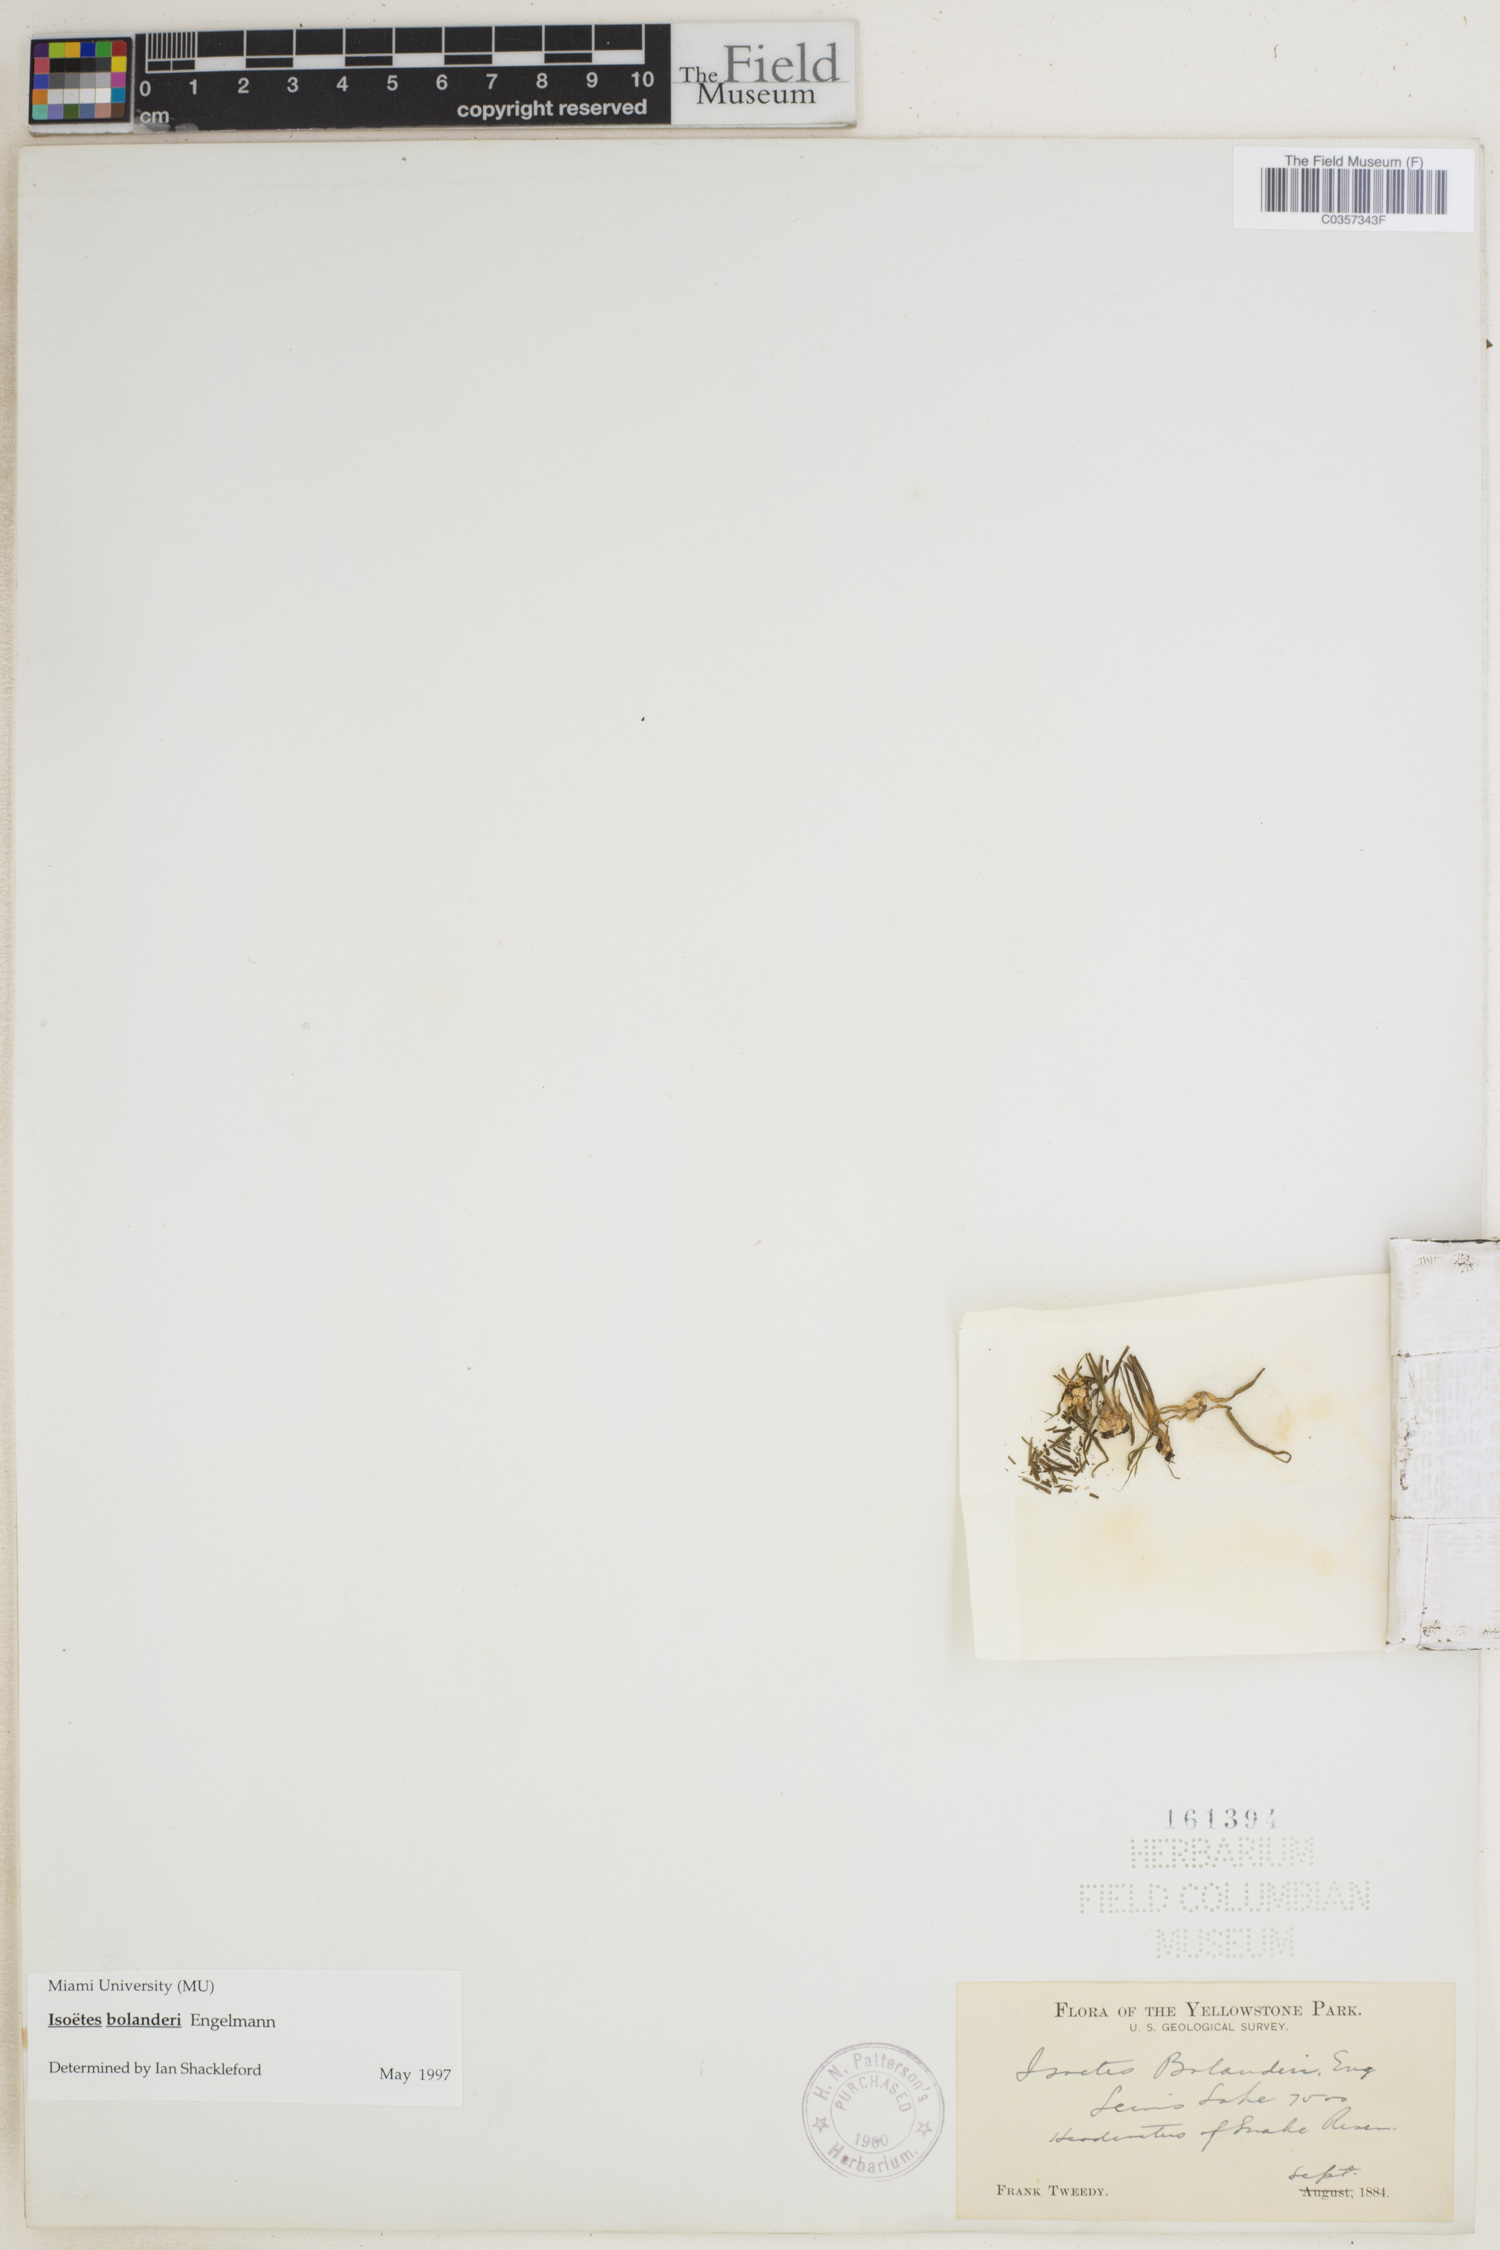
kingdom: Plantae
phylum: Tracheophyta
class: Lycopodiopsida
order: Isoetales
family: Isoetaceae
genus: Isoetes
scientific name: Isoetes bolanderi
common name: Bolander's quillwort
